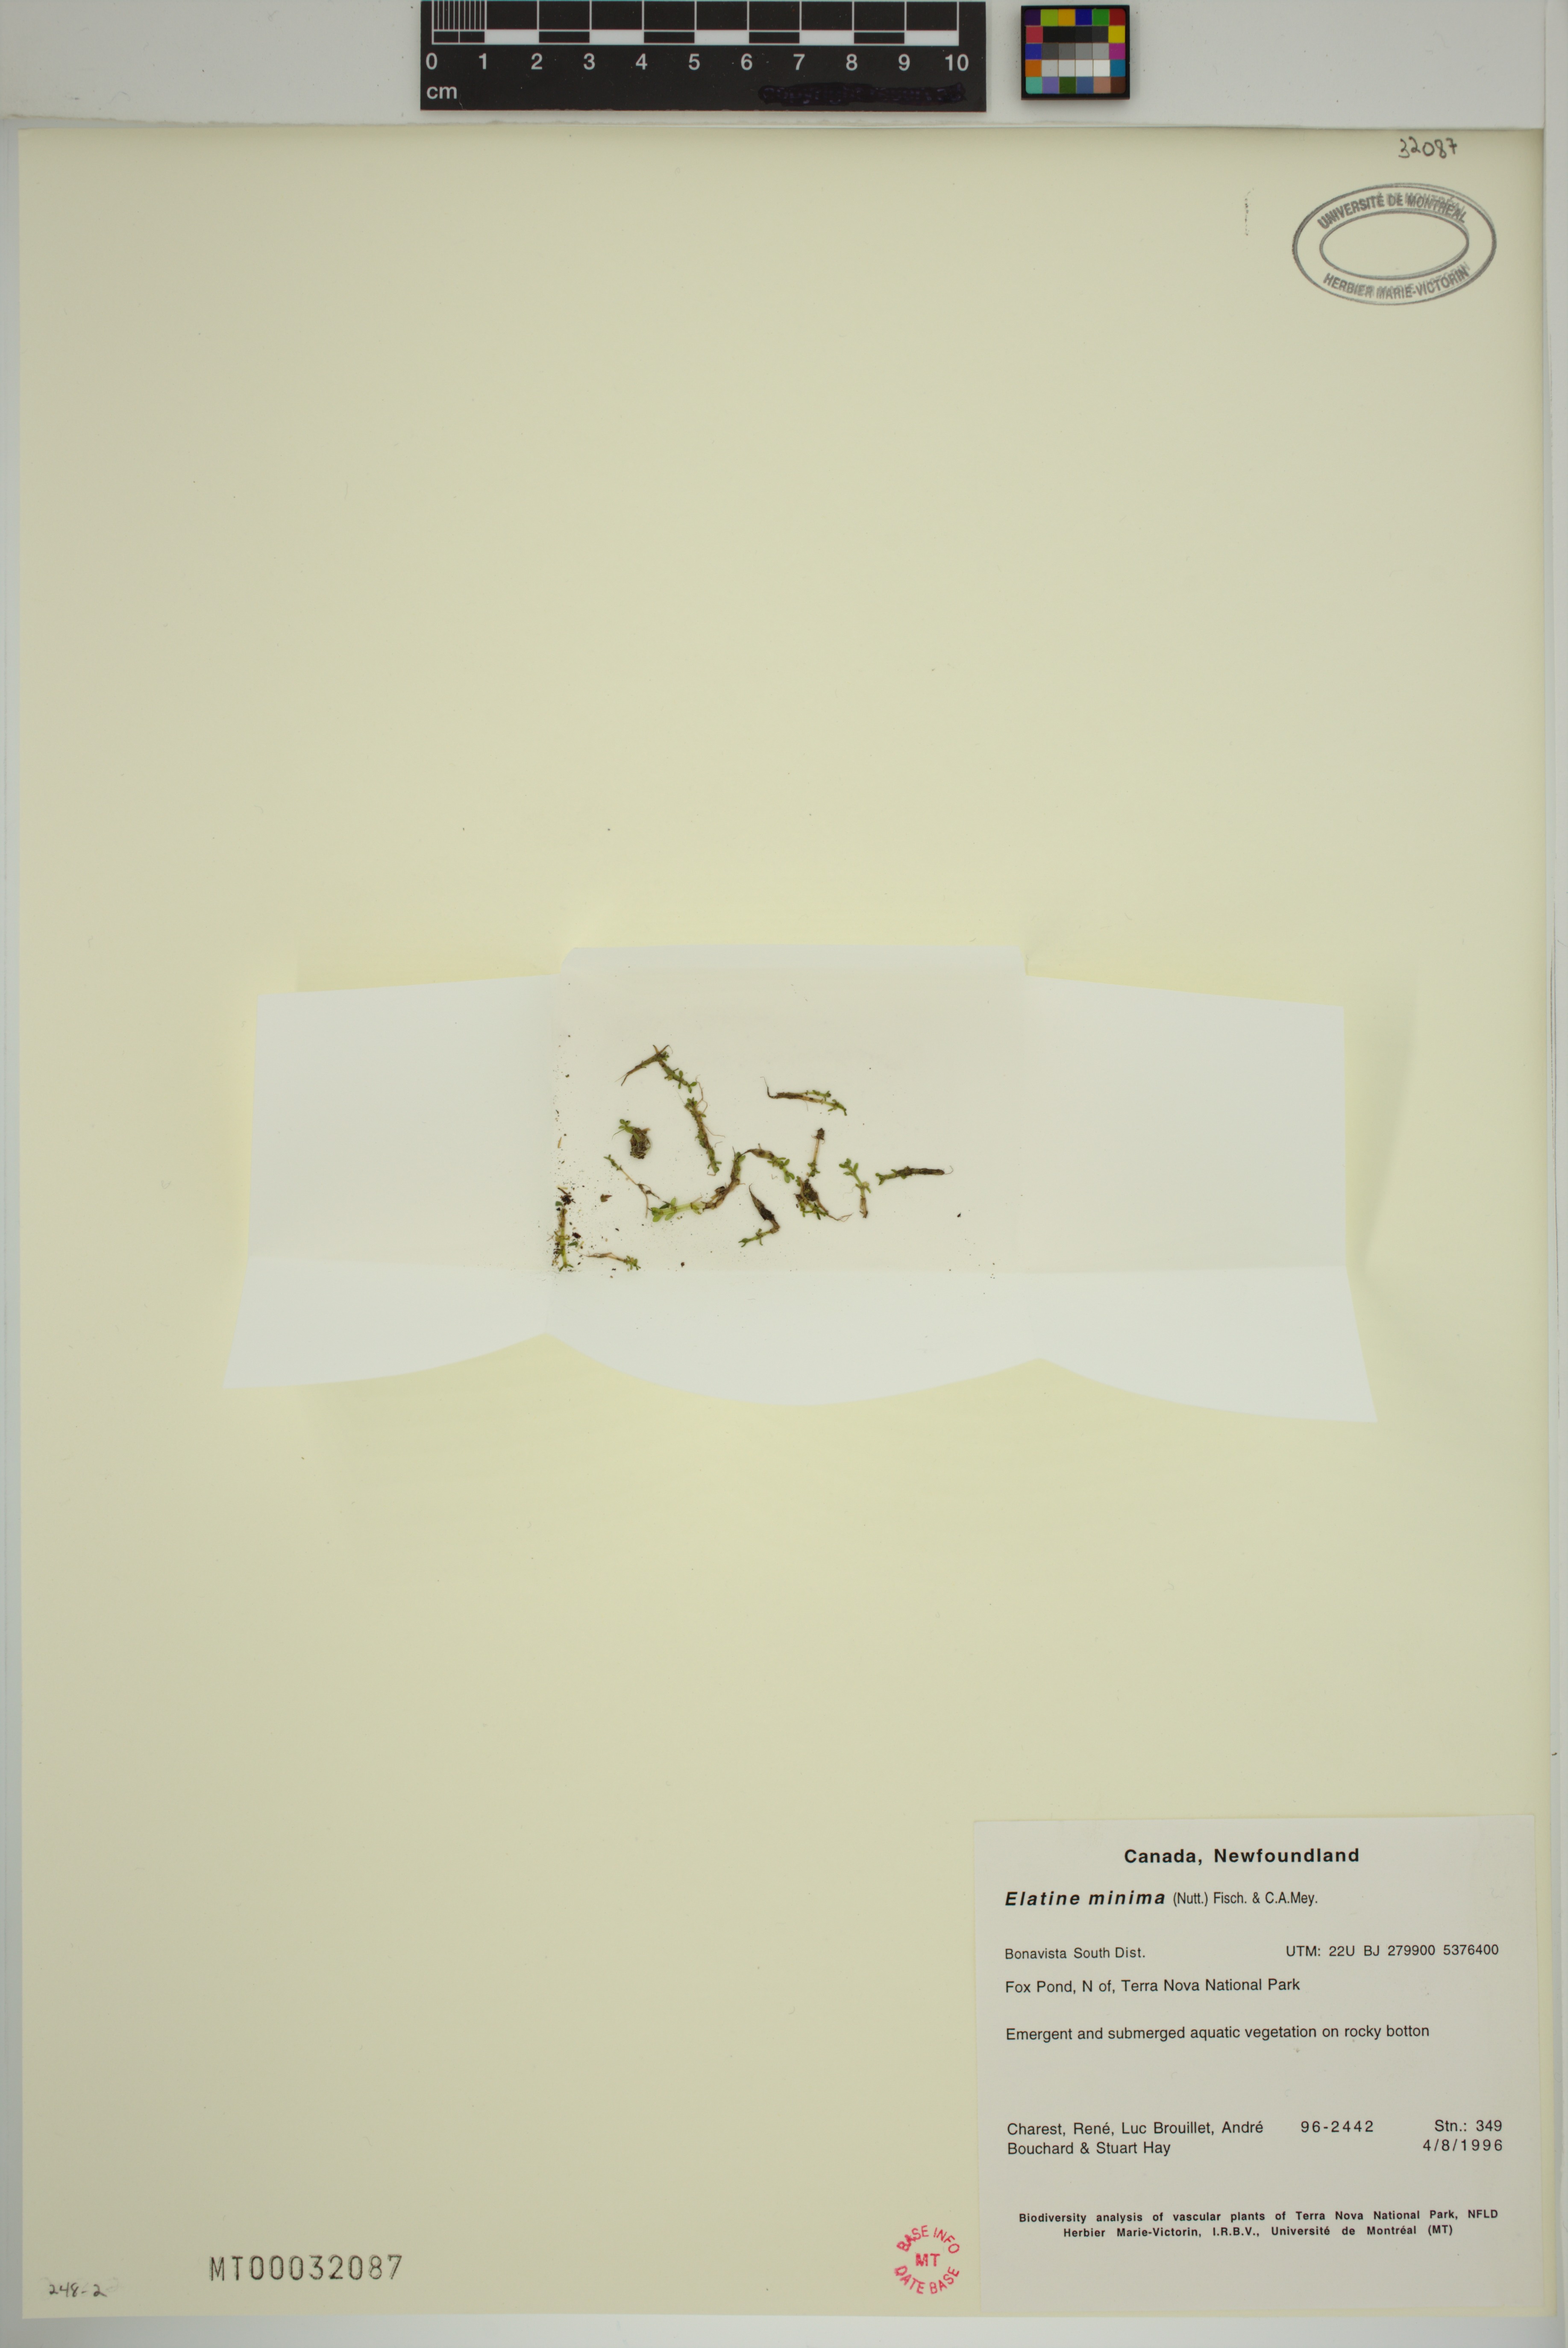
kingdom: Plantae
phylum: Tracheophyta
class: Magnoliopsida
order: Malpighiales
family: Elatinaceae
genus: Elatine
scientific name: Elatine minima
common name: Small waterwort
